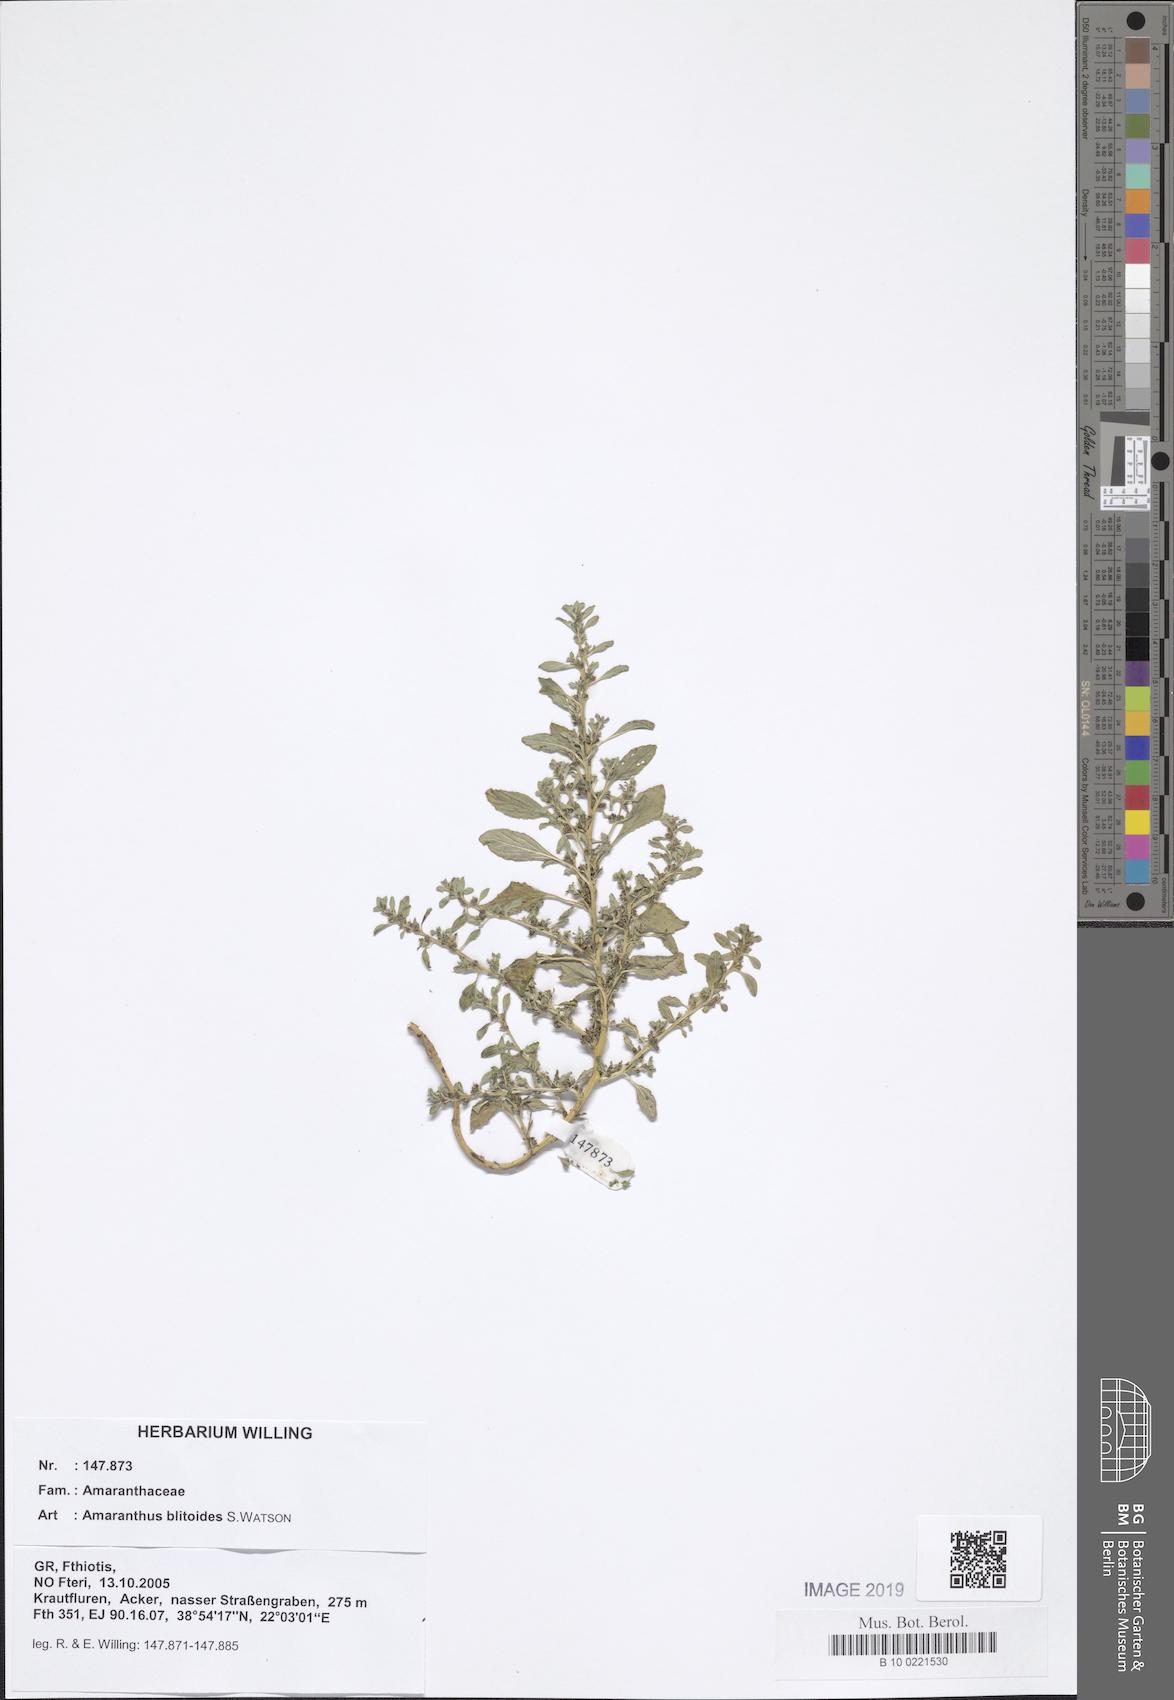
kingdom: Plantae
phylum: Tracheophyta
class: Magnoliopsida
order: Caryophyllales
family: Amaranthaceae
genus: Amaranthus
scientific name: Amaranthus blitoides
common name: Prostrate pigweed
